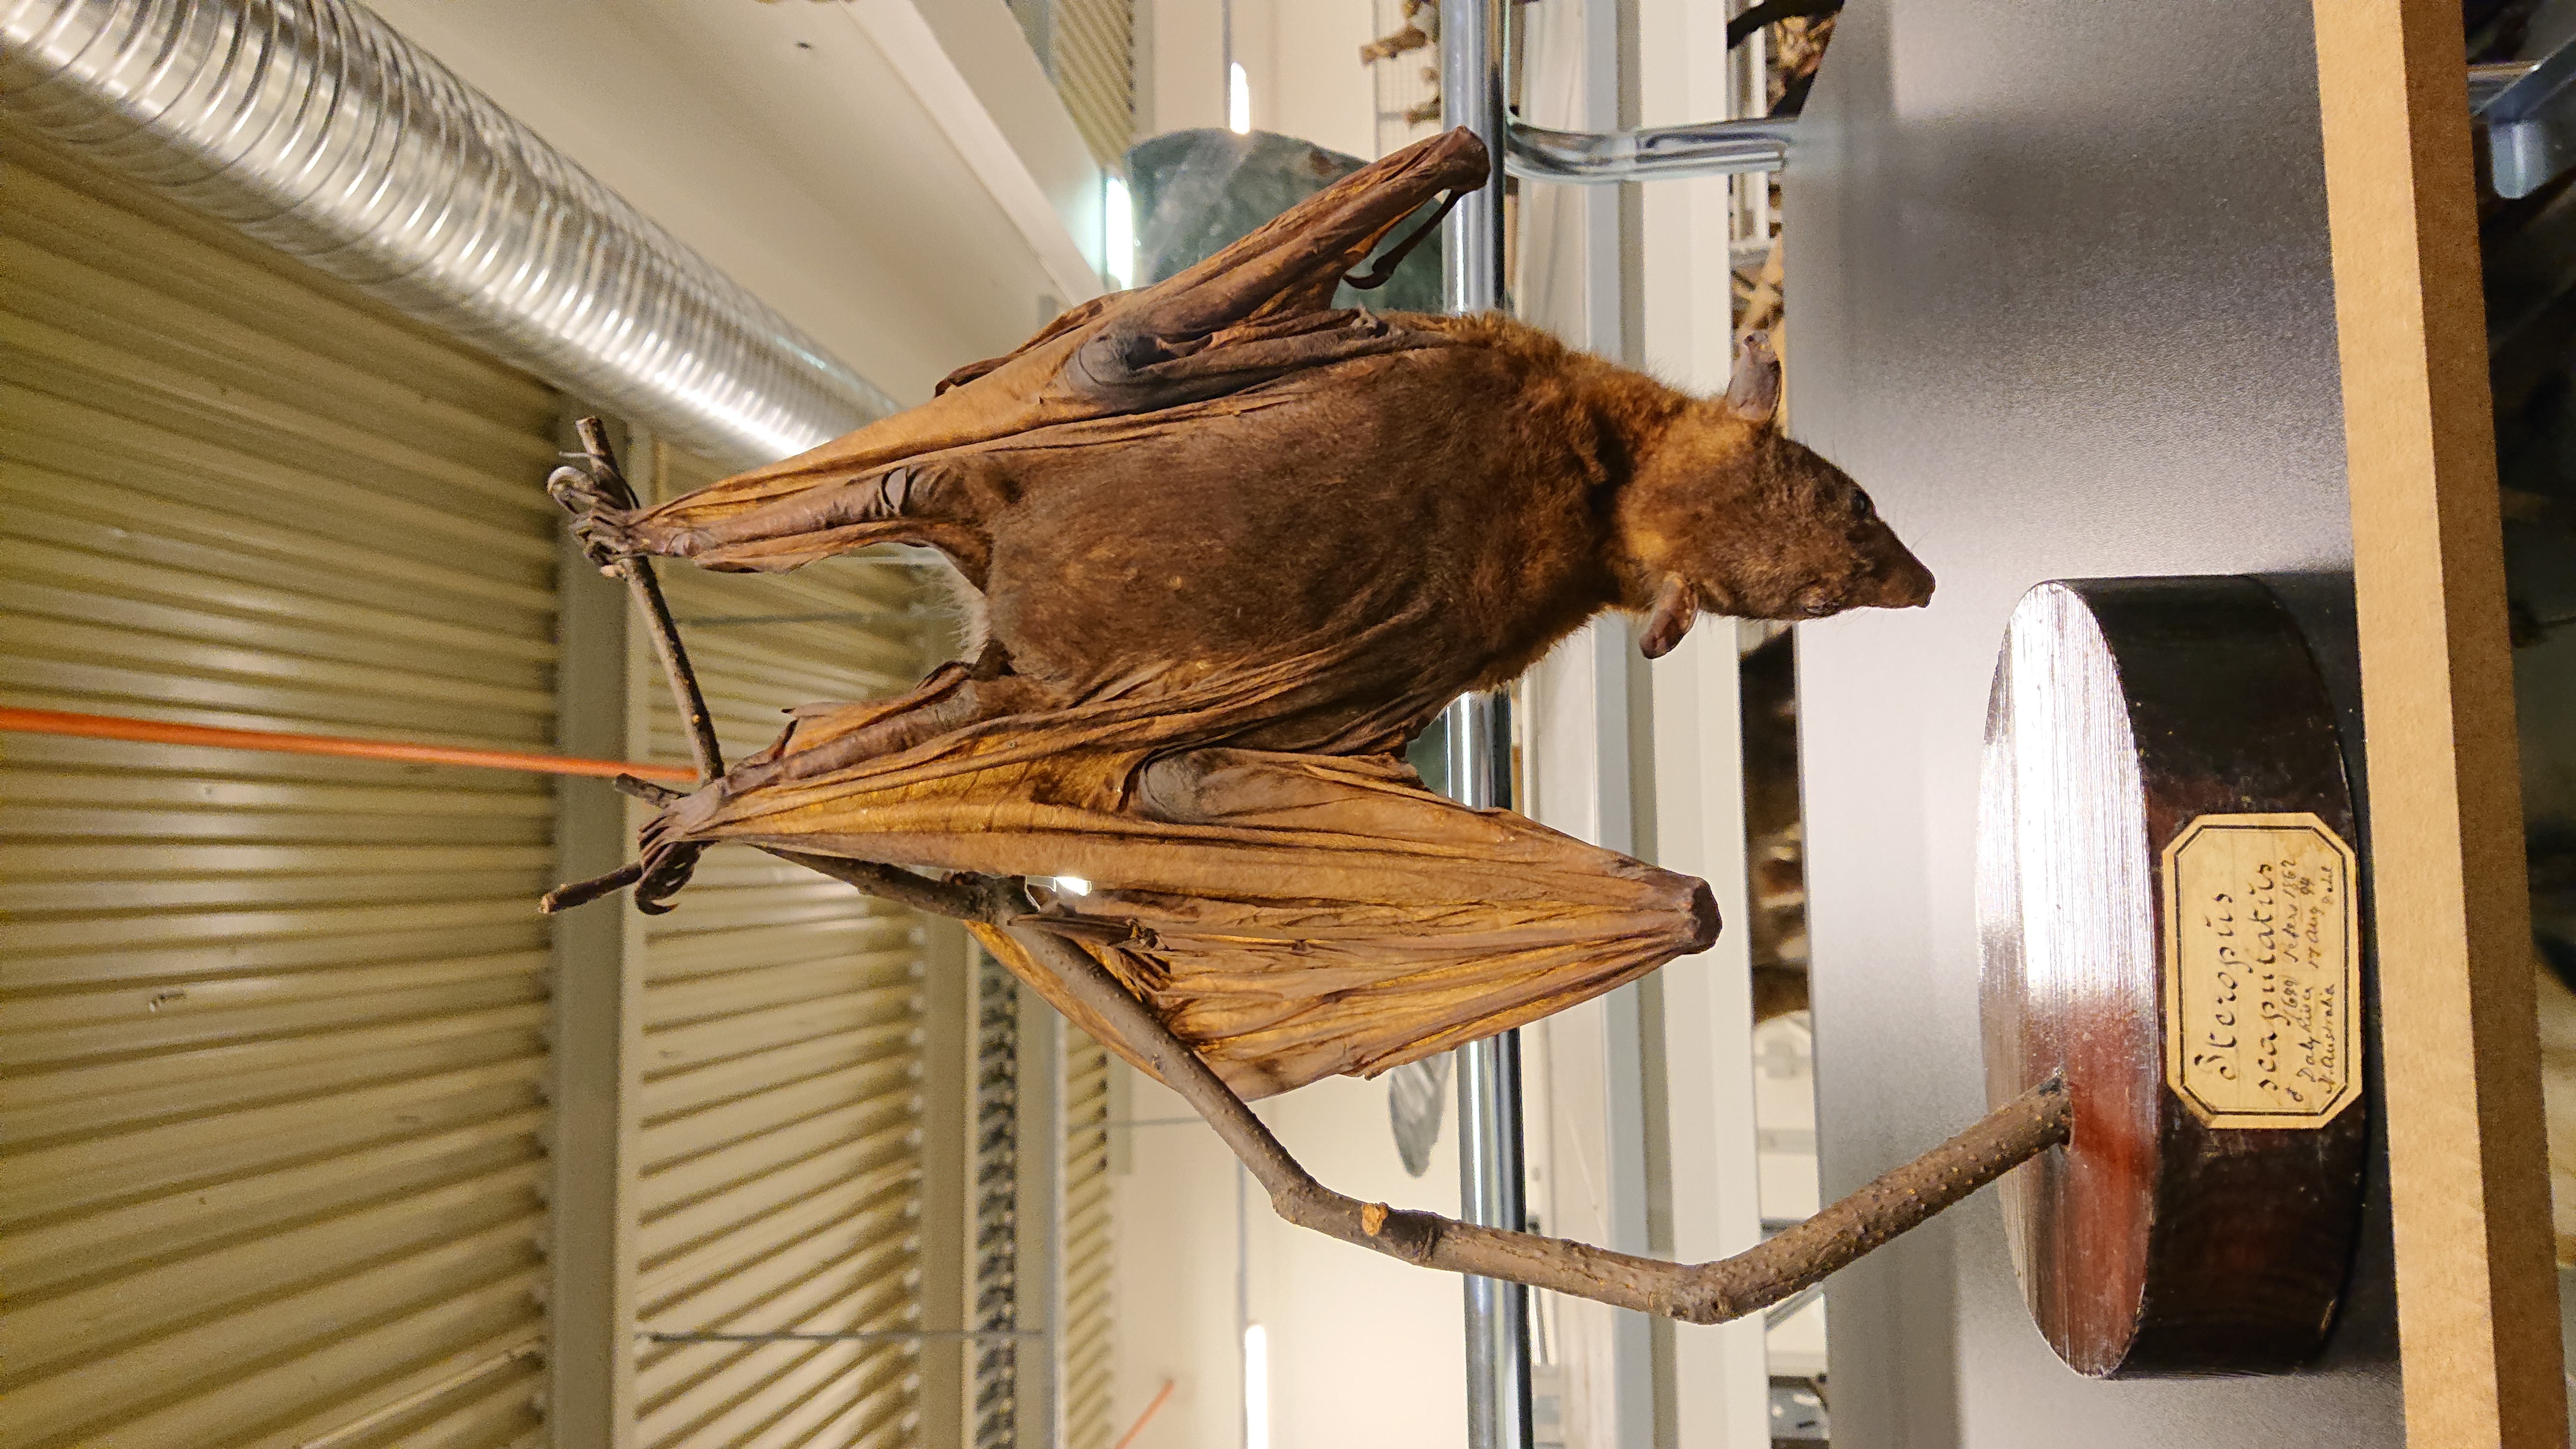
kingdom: Animalia
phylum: Chordata
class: Mammalia
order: Chiroptera
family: Pteropodidae
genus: Pteropus
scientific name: Pteropus scapulatus
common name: Little red flying fox
